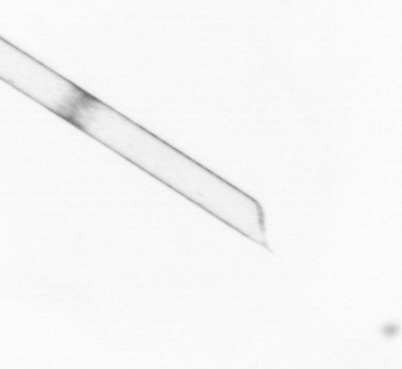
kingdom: Chromista
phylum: Ochrophyta
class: Bacillariophyceae
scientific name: Bacillariophyceae
